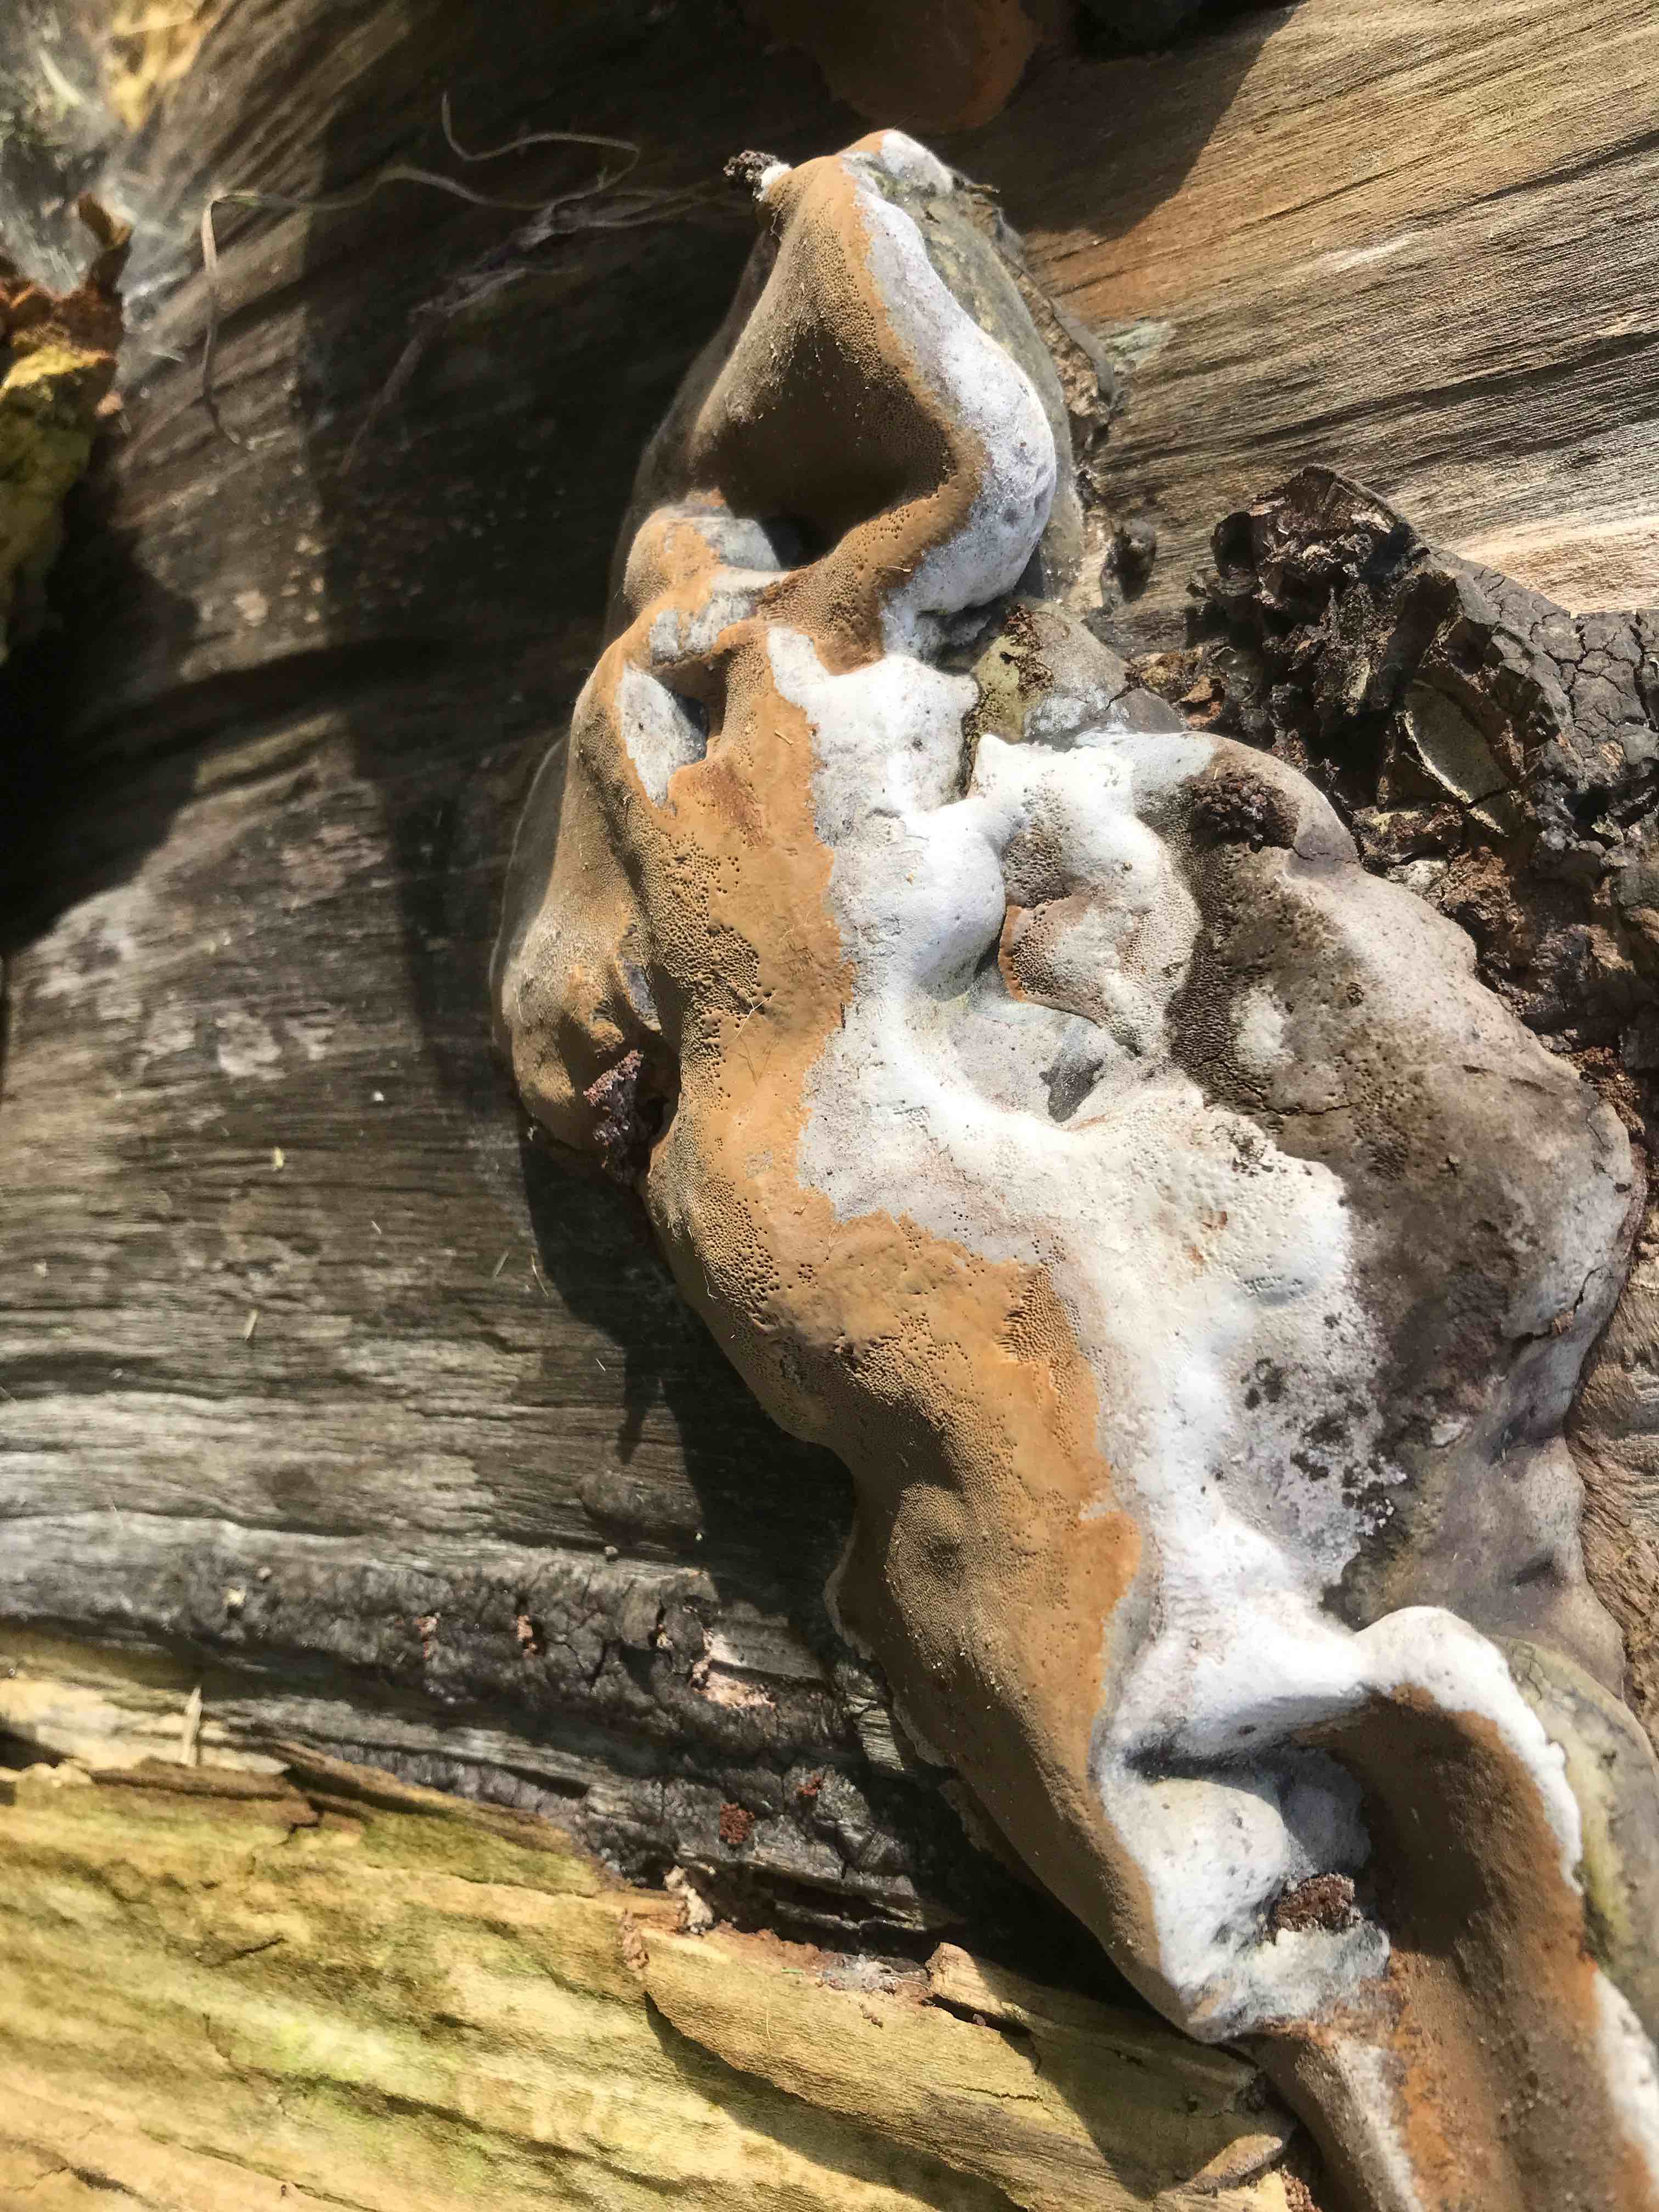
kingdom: Fungi
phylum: Basidiomycota
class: Agaricomycetes
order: Hymenochaetales
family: Hymenochaetaceae
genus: Phellinus
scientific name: Phellinus
